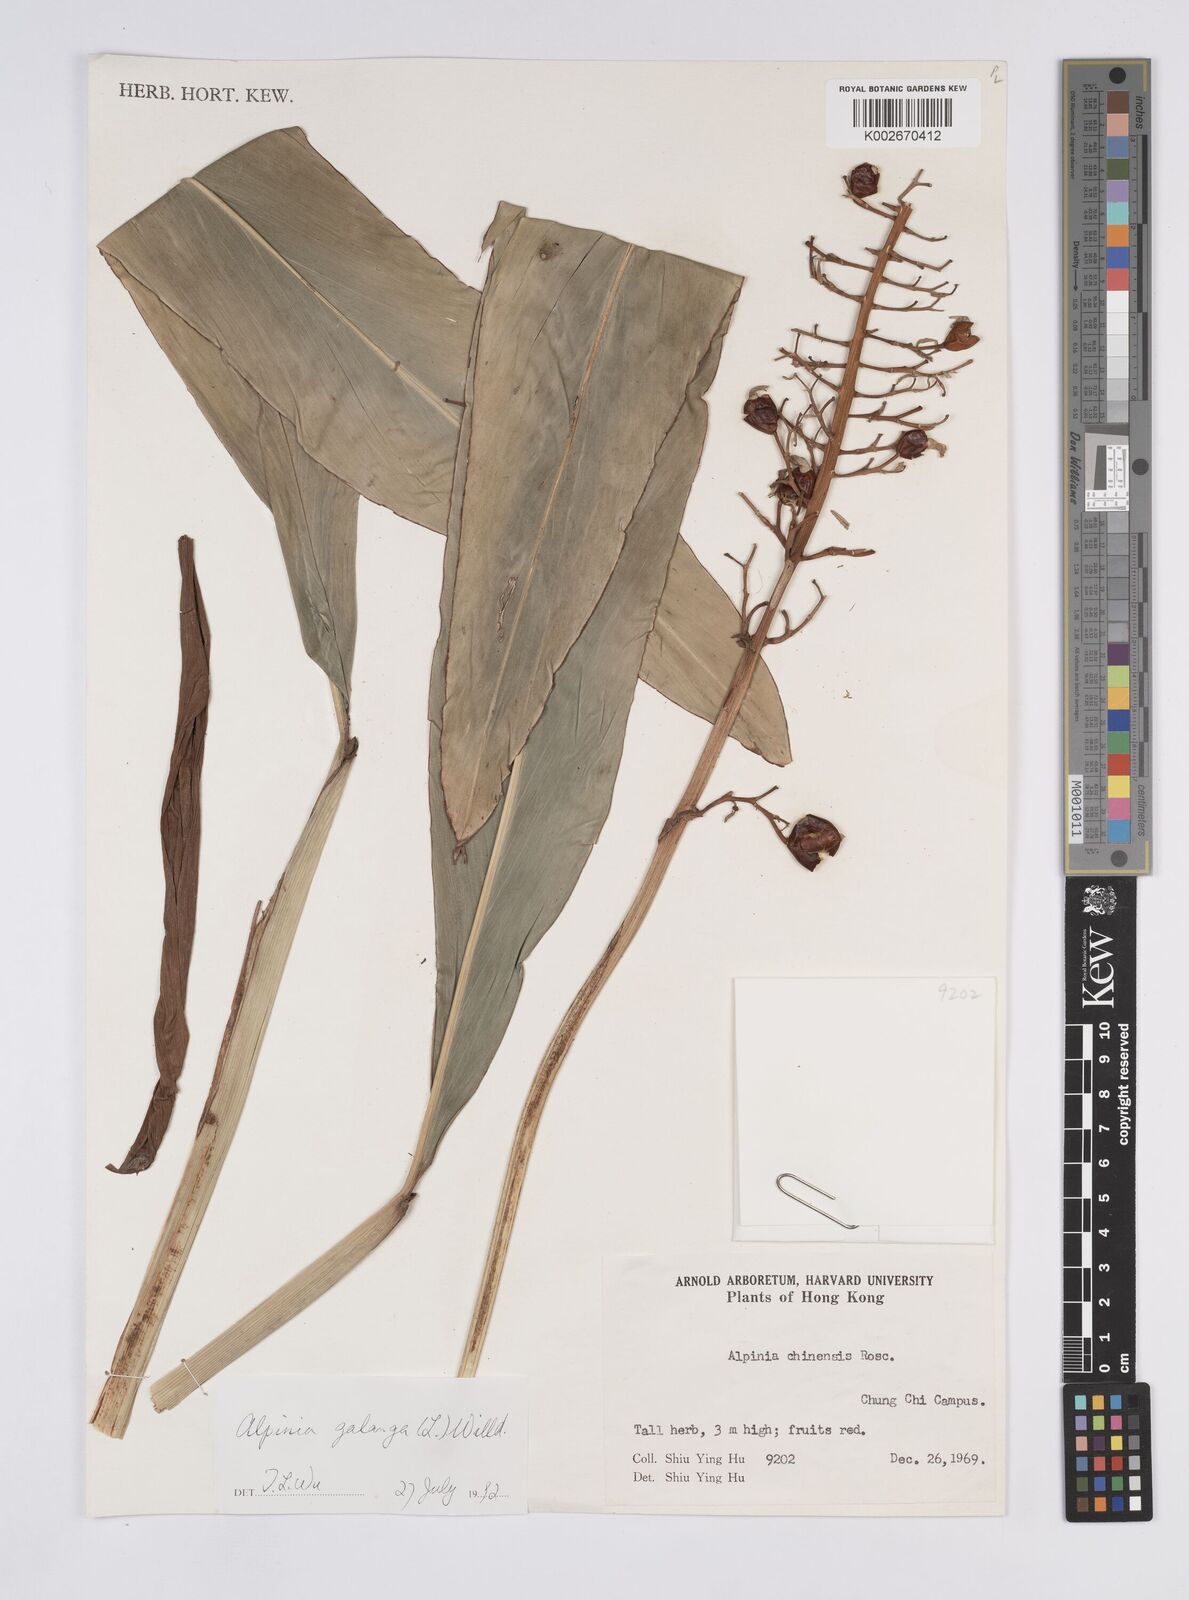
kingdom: Plantae
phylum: Tracheophyta
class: Liliopsida
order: Zingiberales
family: Zingiberaceae
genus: Alpinia
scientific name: Alpinia galanga
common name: Siamese-ginger
